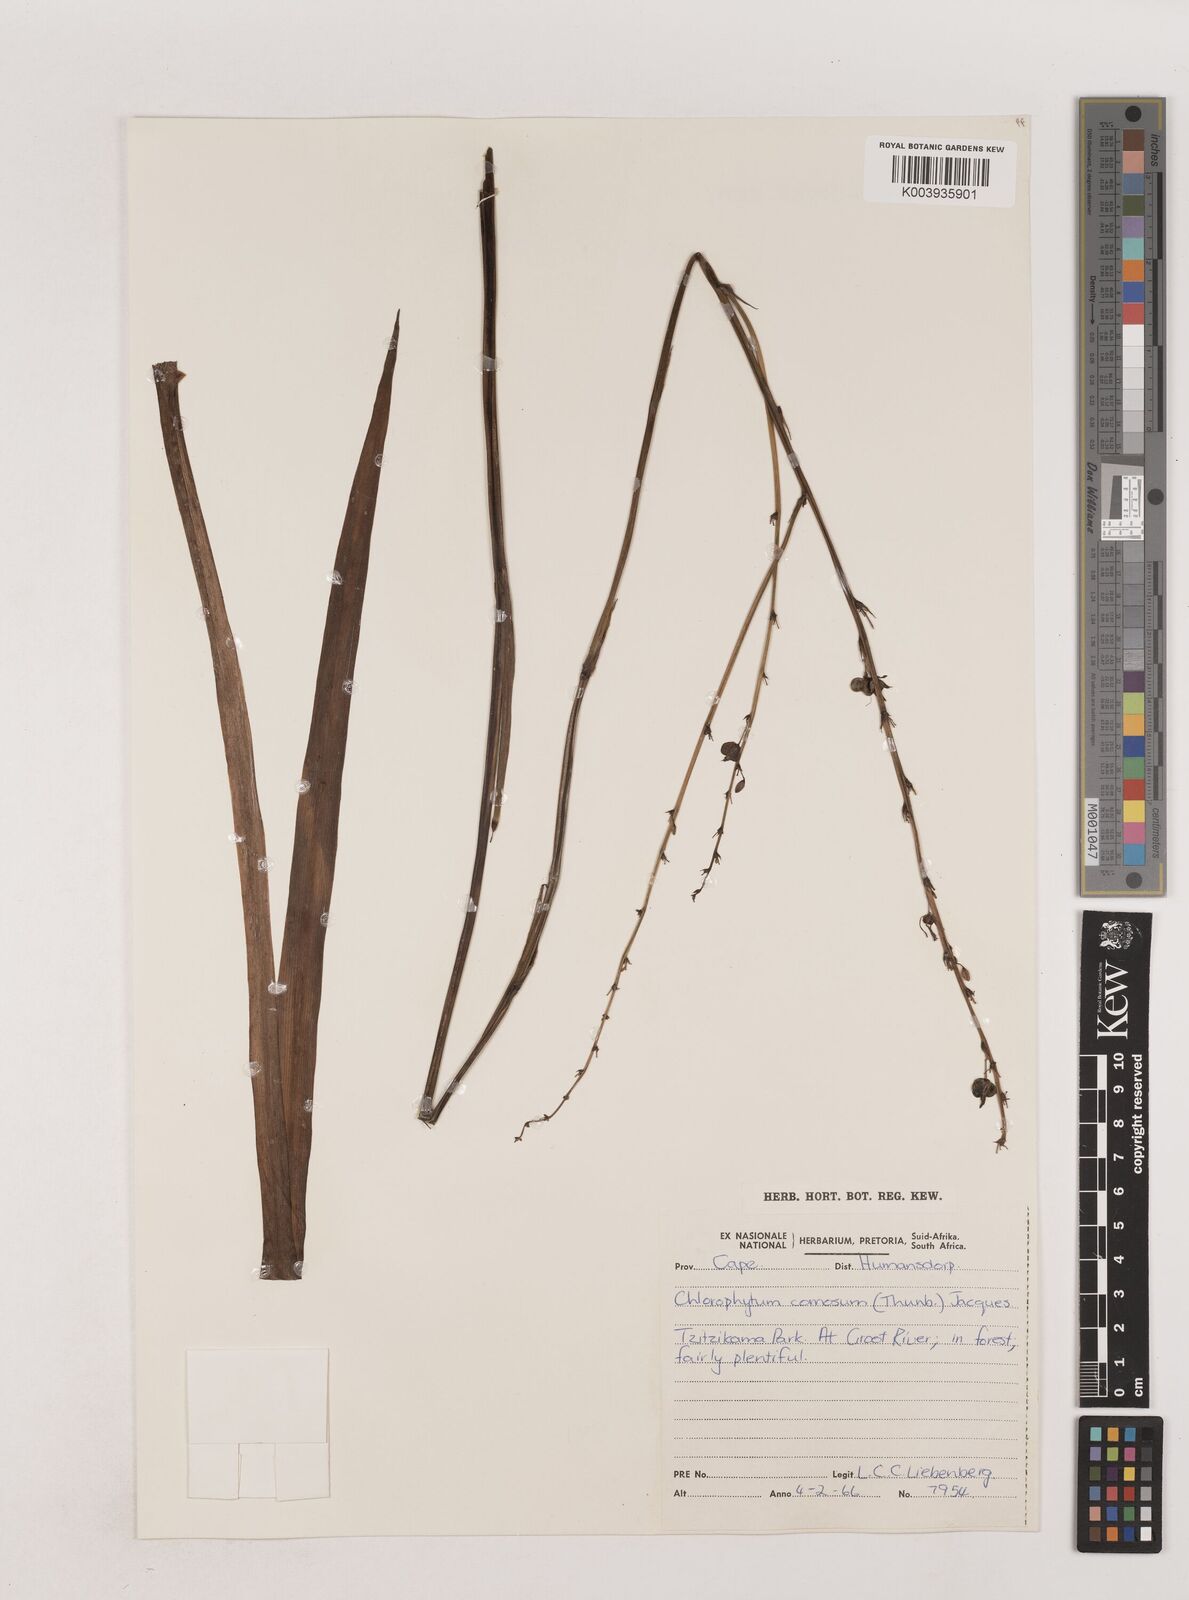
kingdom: Plantae
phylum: Tracheophyta
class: Liliopsida
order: Asparagales
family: Asparagaceae
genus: Chlorophytum
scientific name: Chlorophytum comosum
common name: Spider plant
